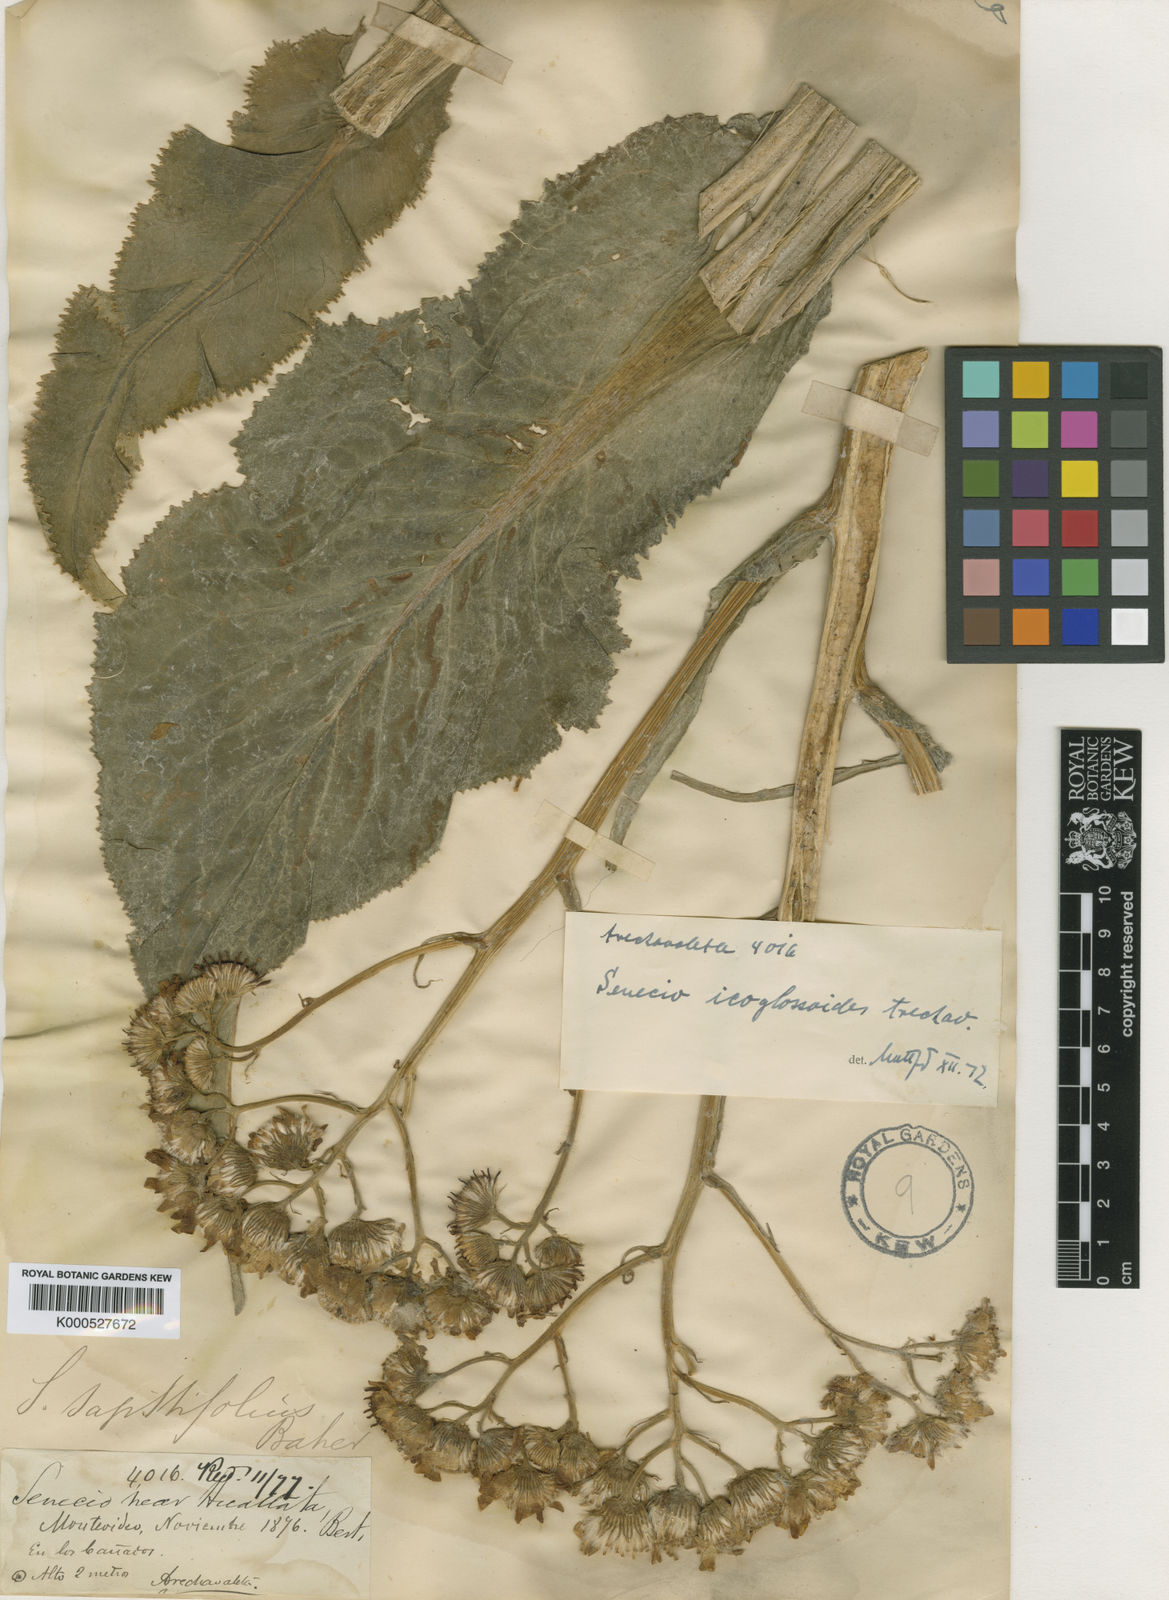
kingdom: Plantae
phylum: Tracheophyta
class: Magnoliopsida
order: Asterales
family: Asteraceae
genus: Senecio
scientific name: Senecio icoglossoides
